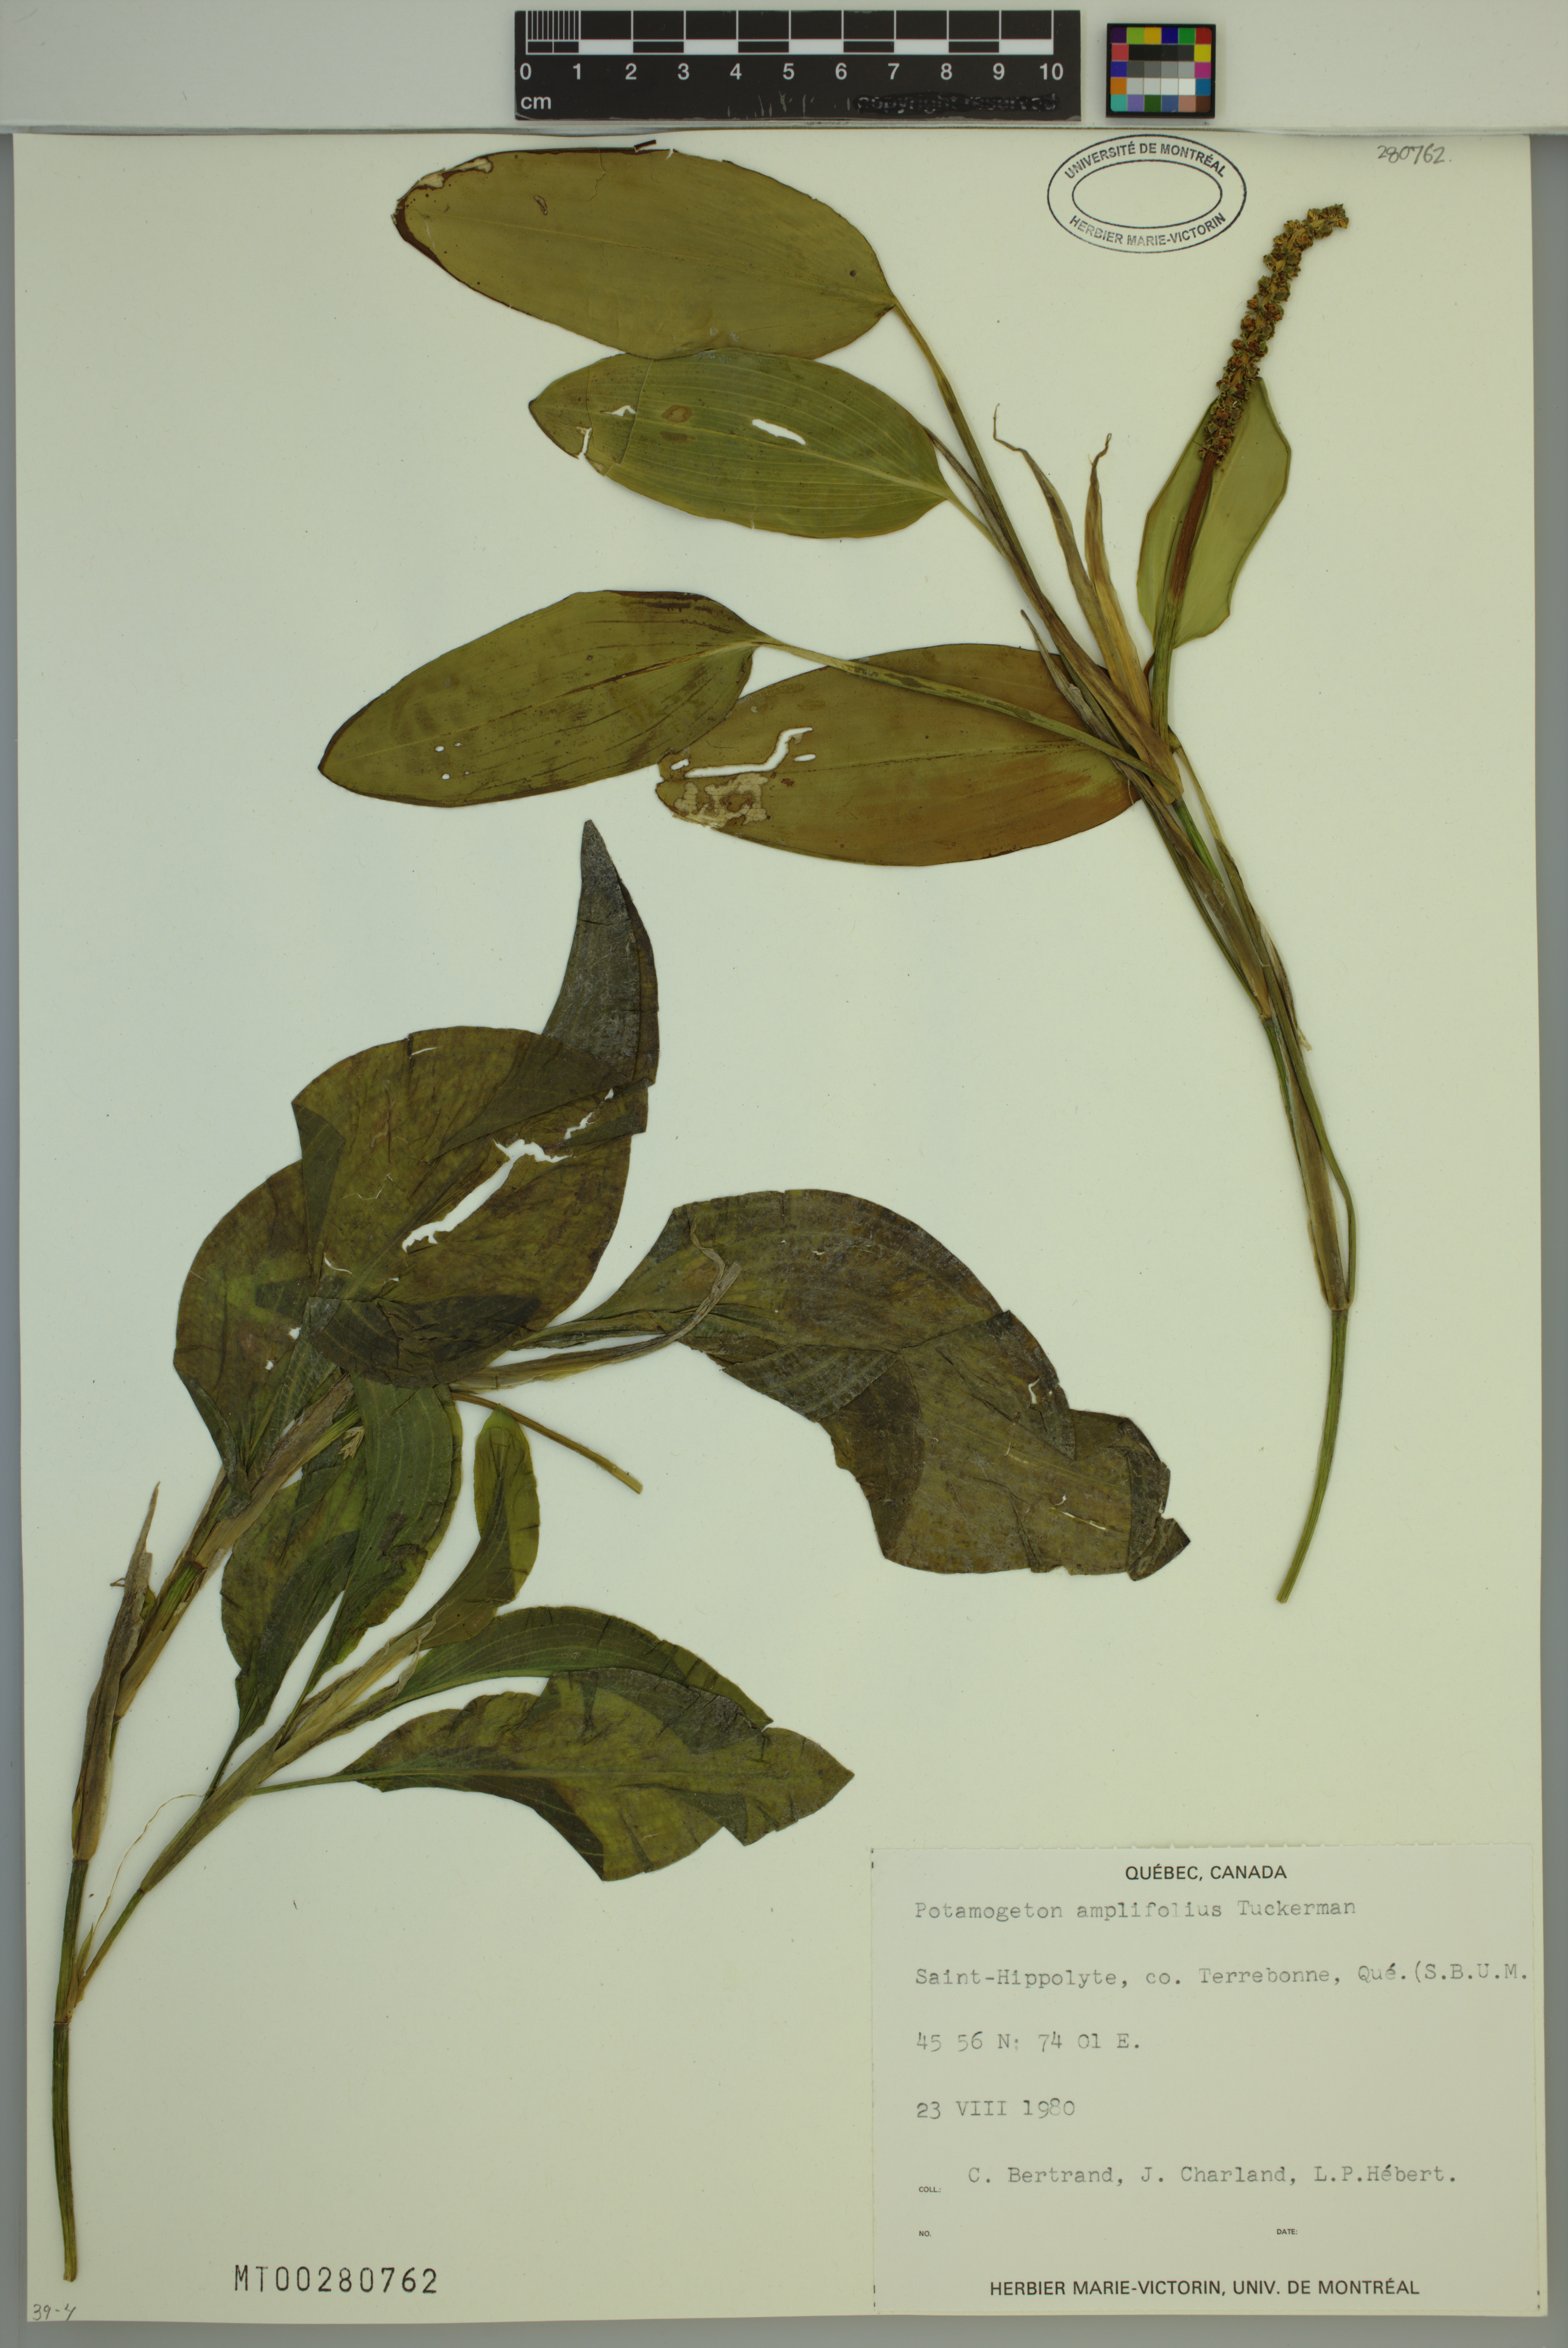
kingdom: Plantae
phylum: Tracheophyta
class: Liliopsida
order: Alismatales
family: Potamogetonaceae
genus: Potamogeton
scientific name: Potamogeton amplifolius
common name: Broad-leaved pondweed
